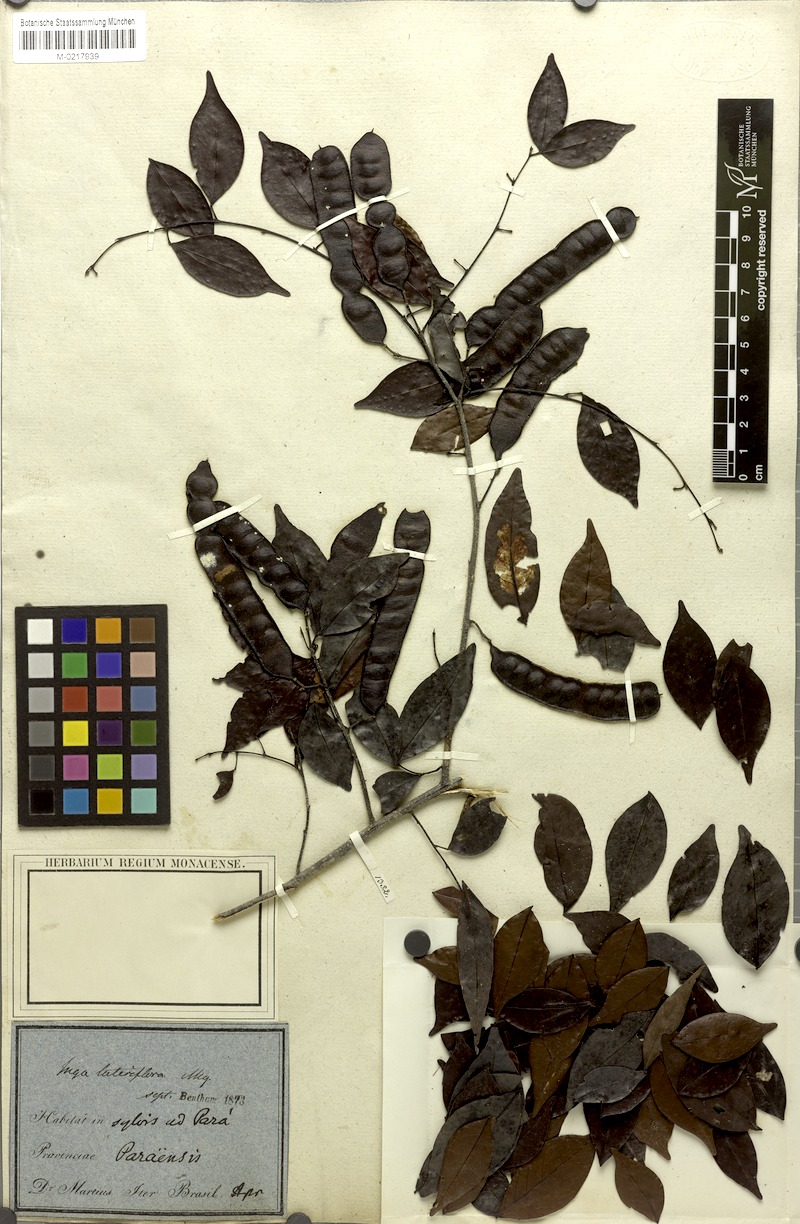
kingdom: Plantae
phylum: Tracheophyta
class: Magnoliopsida
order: Fabales
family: Fabaceae
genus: Inga
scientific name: Inga lateriflora
